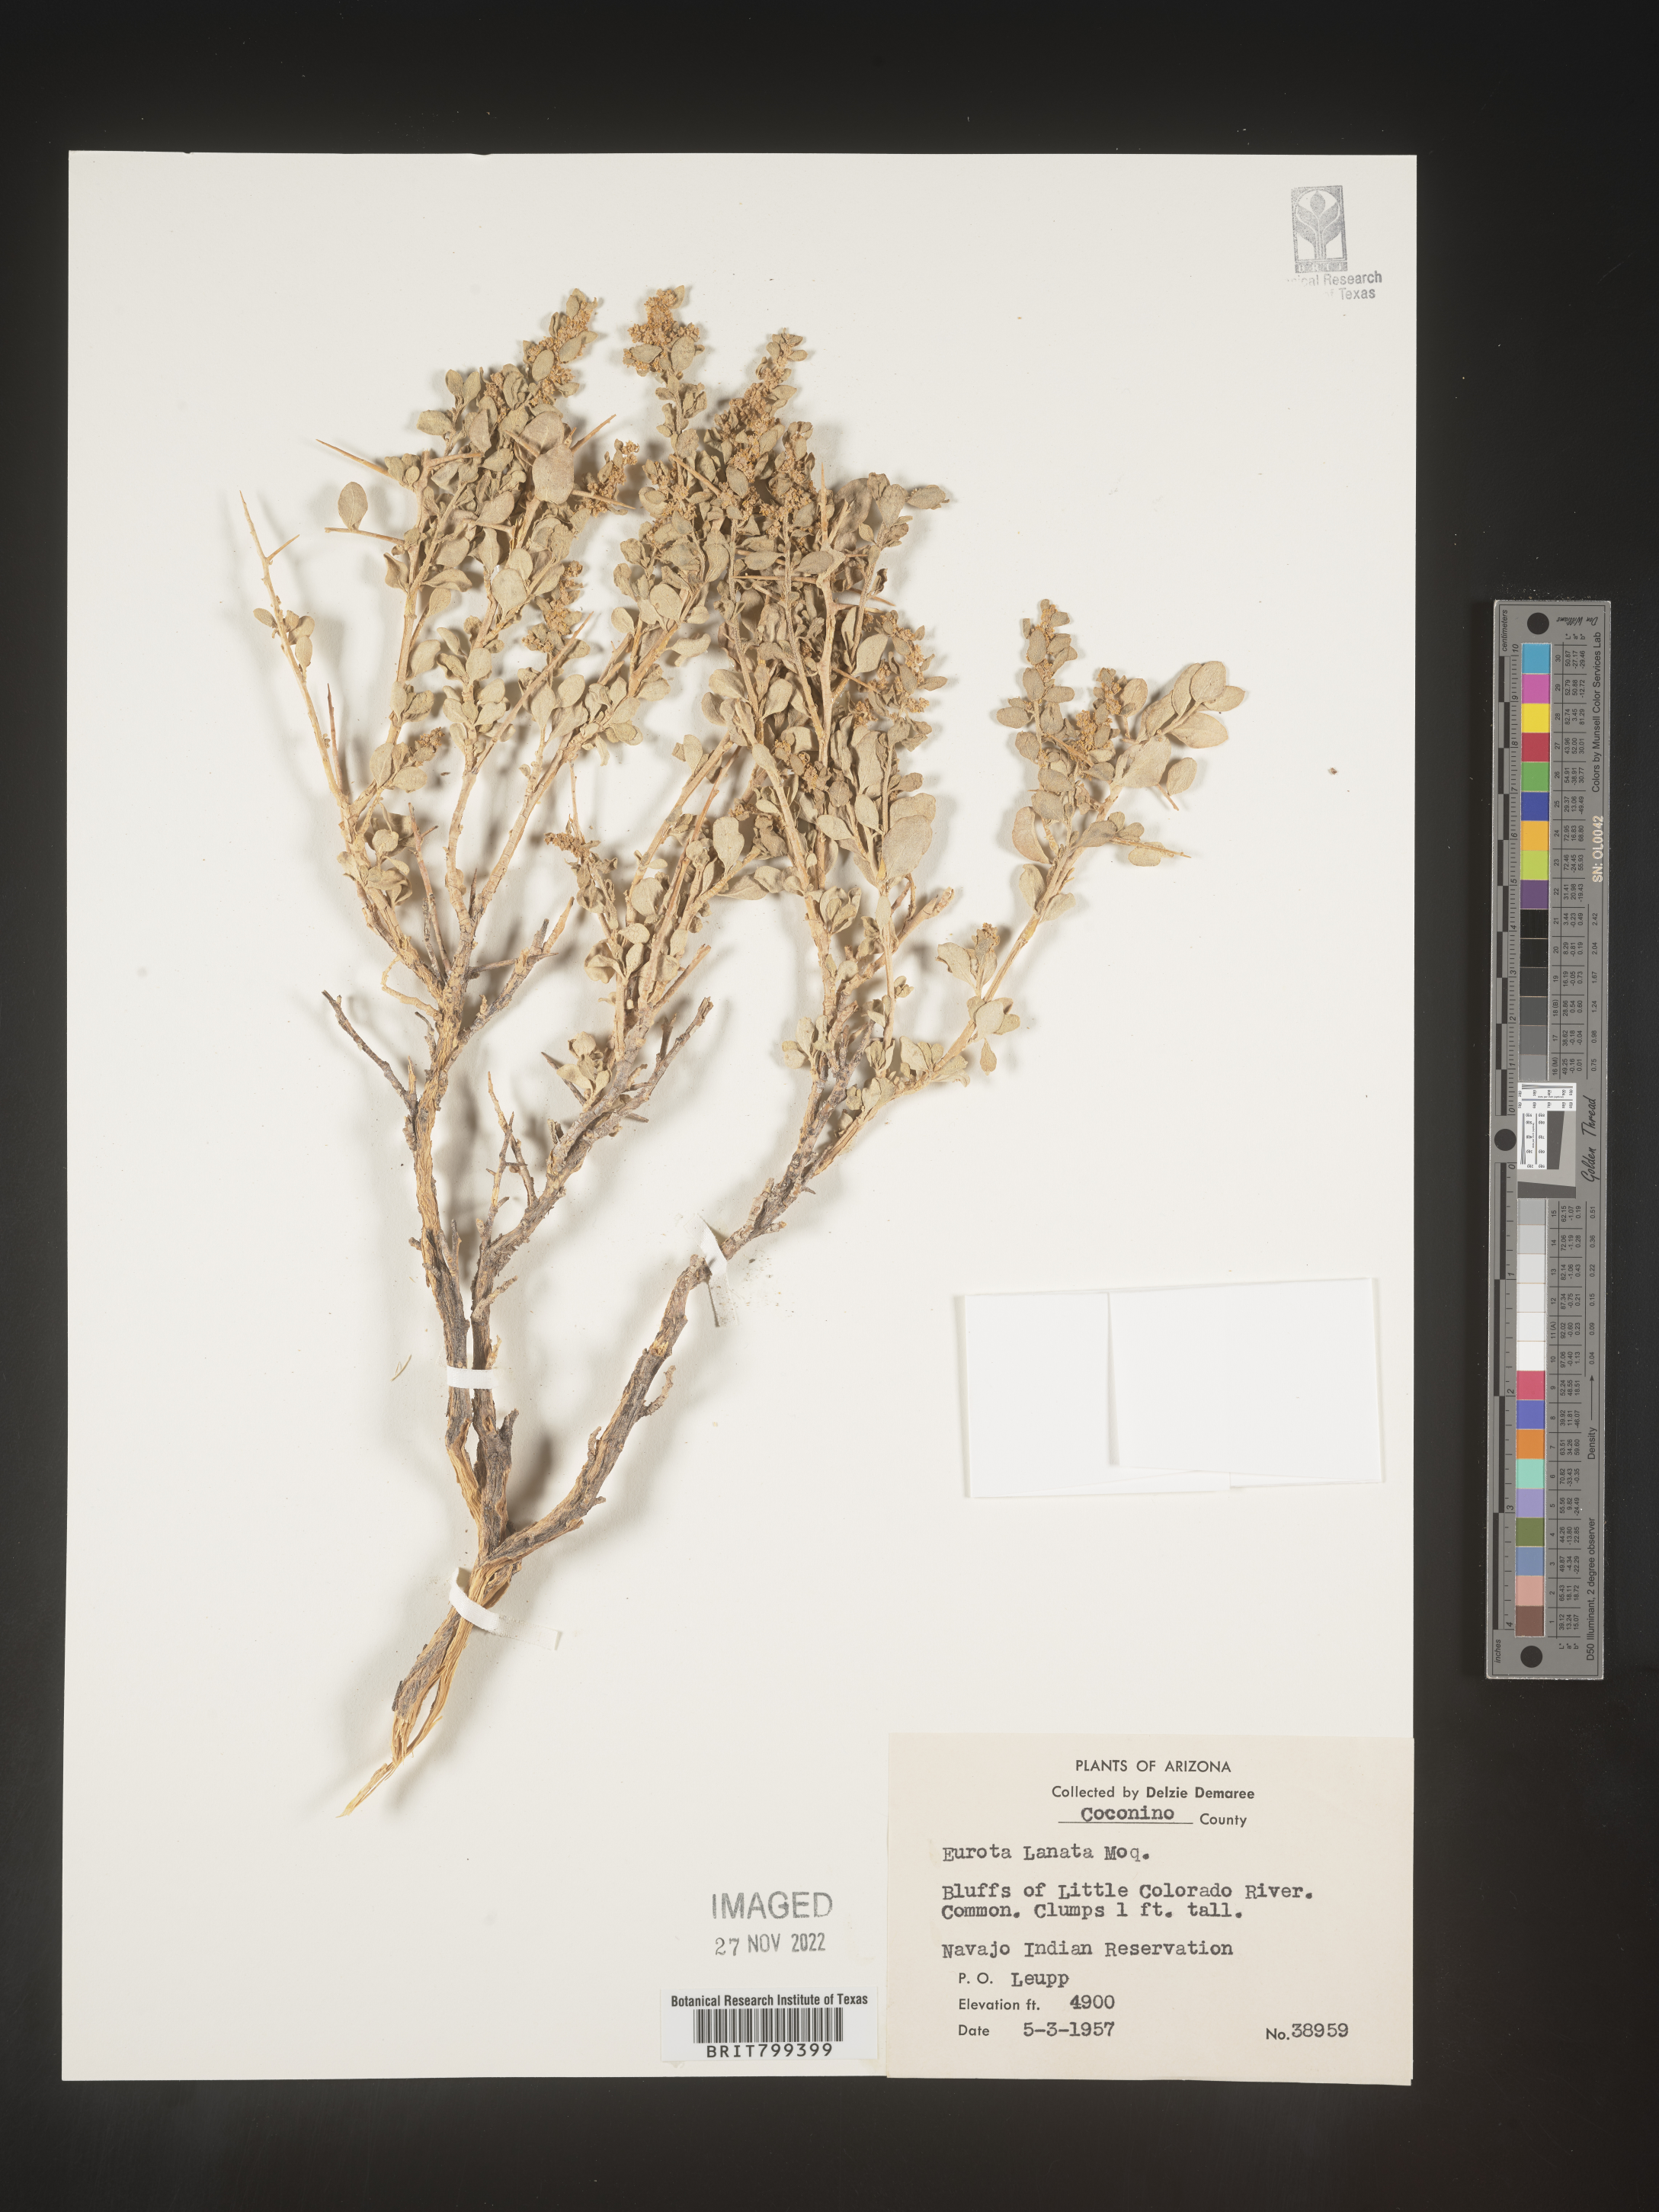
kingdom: Plantae
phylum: Tracheophyta
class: Magnoliopsida
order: Caryophyllales
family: Amaranthaceae
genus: Axyris
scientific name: Axyris
